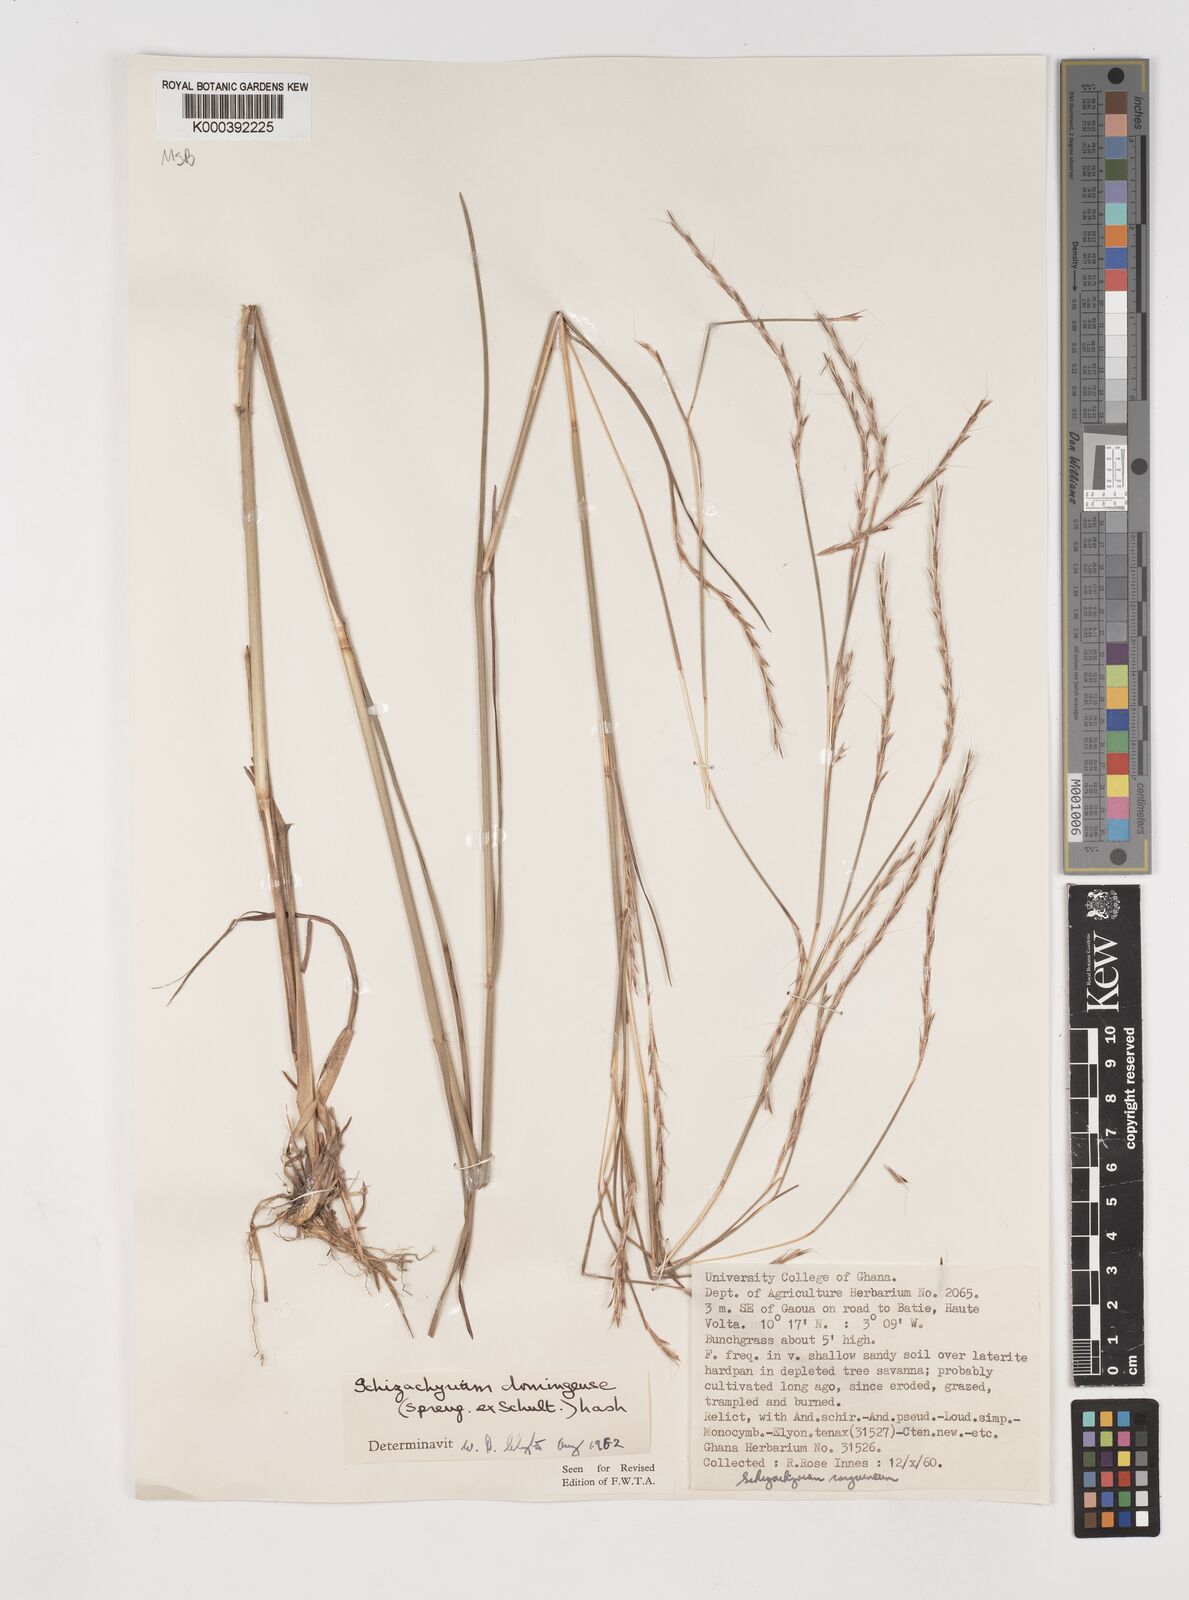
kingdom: Plantae
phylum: Tracheophyta
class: Liliopsida
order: Poales
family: Poaceae
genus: Schizachyrium
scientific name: Schizachyrium sanguineum
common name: Crimson bluestem
